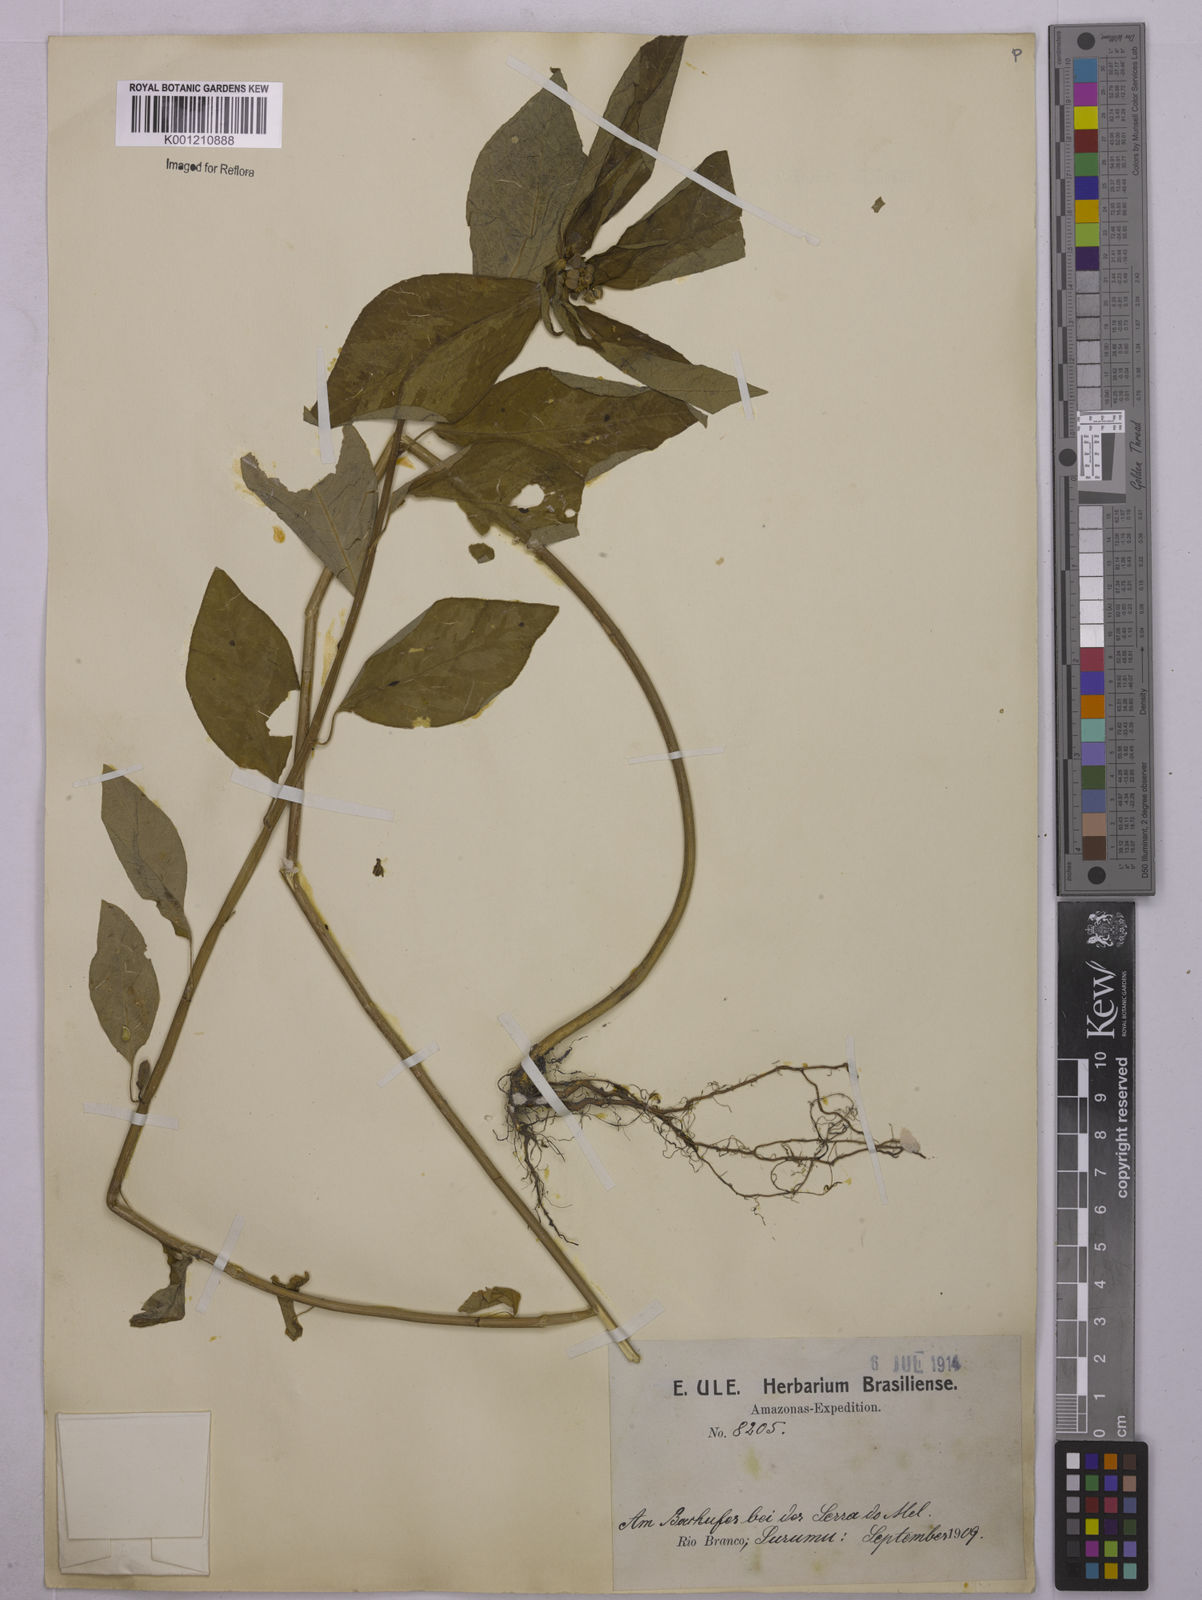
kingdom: Plantae
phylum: Tracheophyta
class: Magnoliopsida
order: Malpighiales
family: Euphorbiaceae
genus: Euphorbia
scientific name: Euphorbia heterophylla
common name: Mexican fireplant
